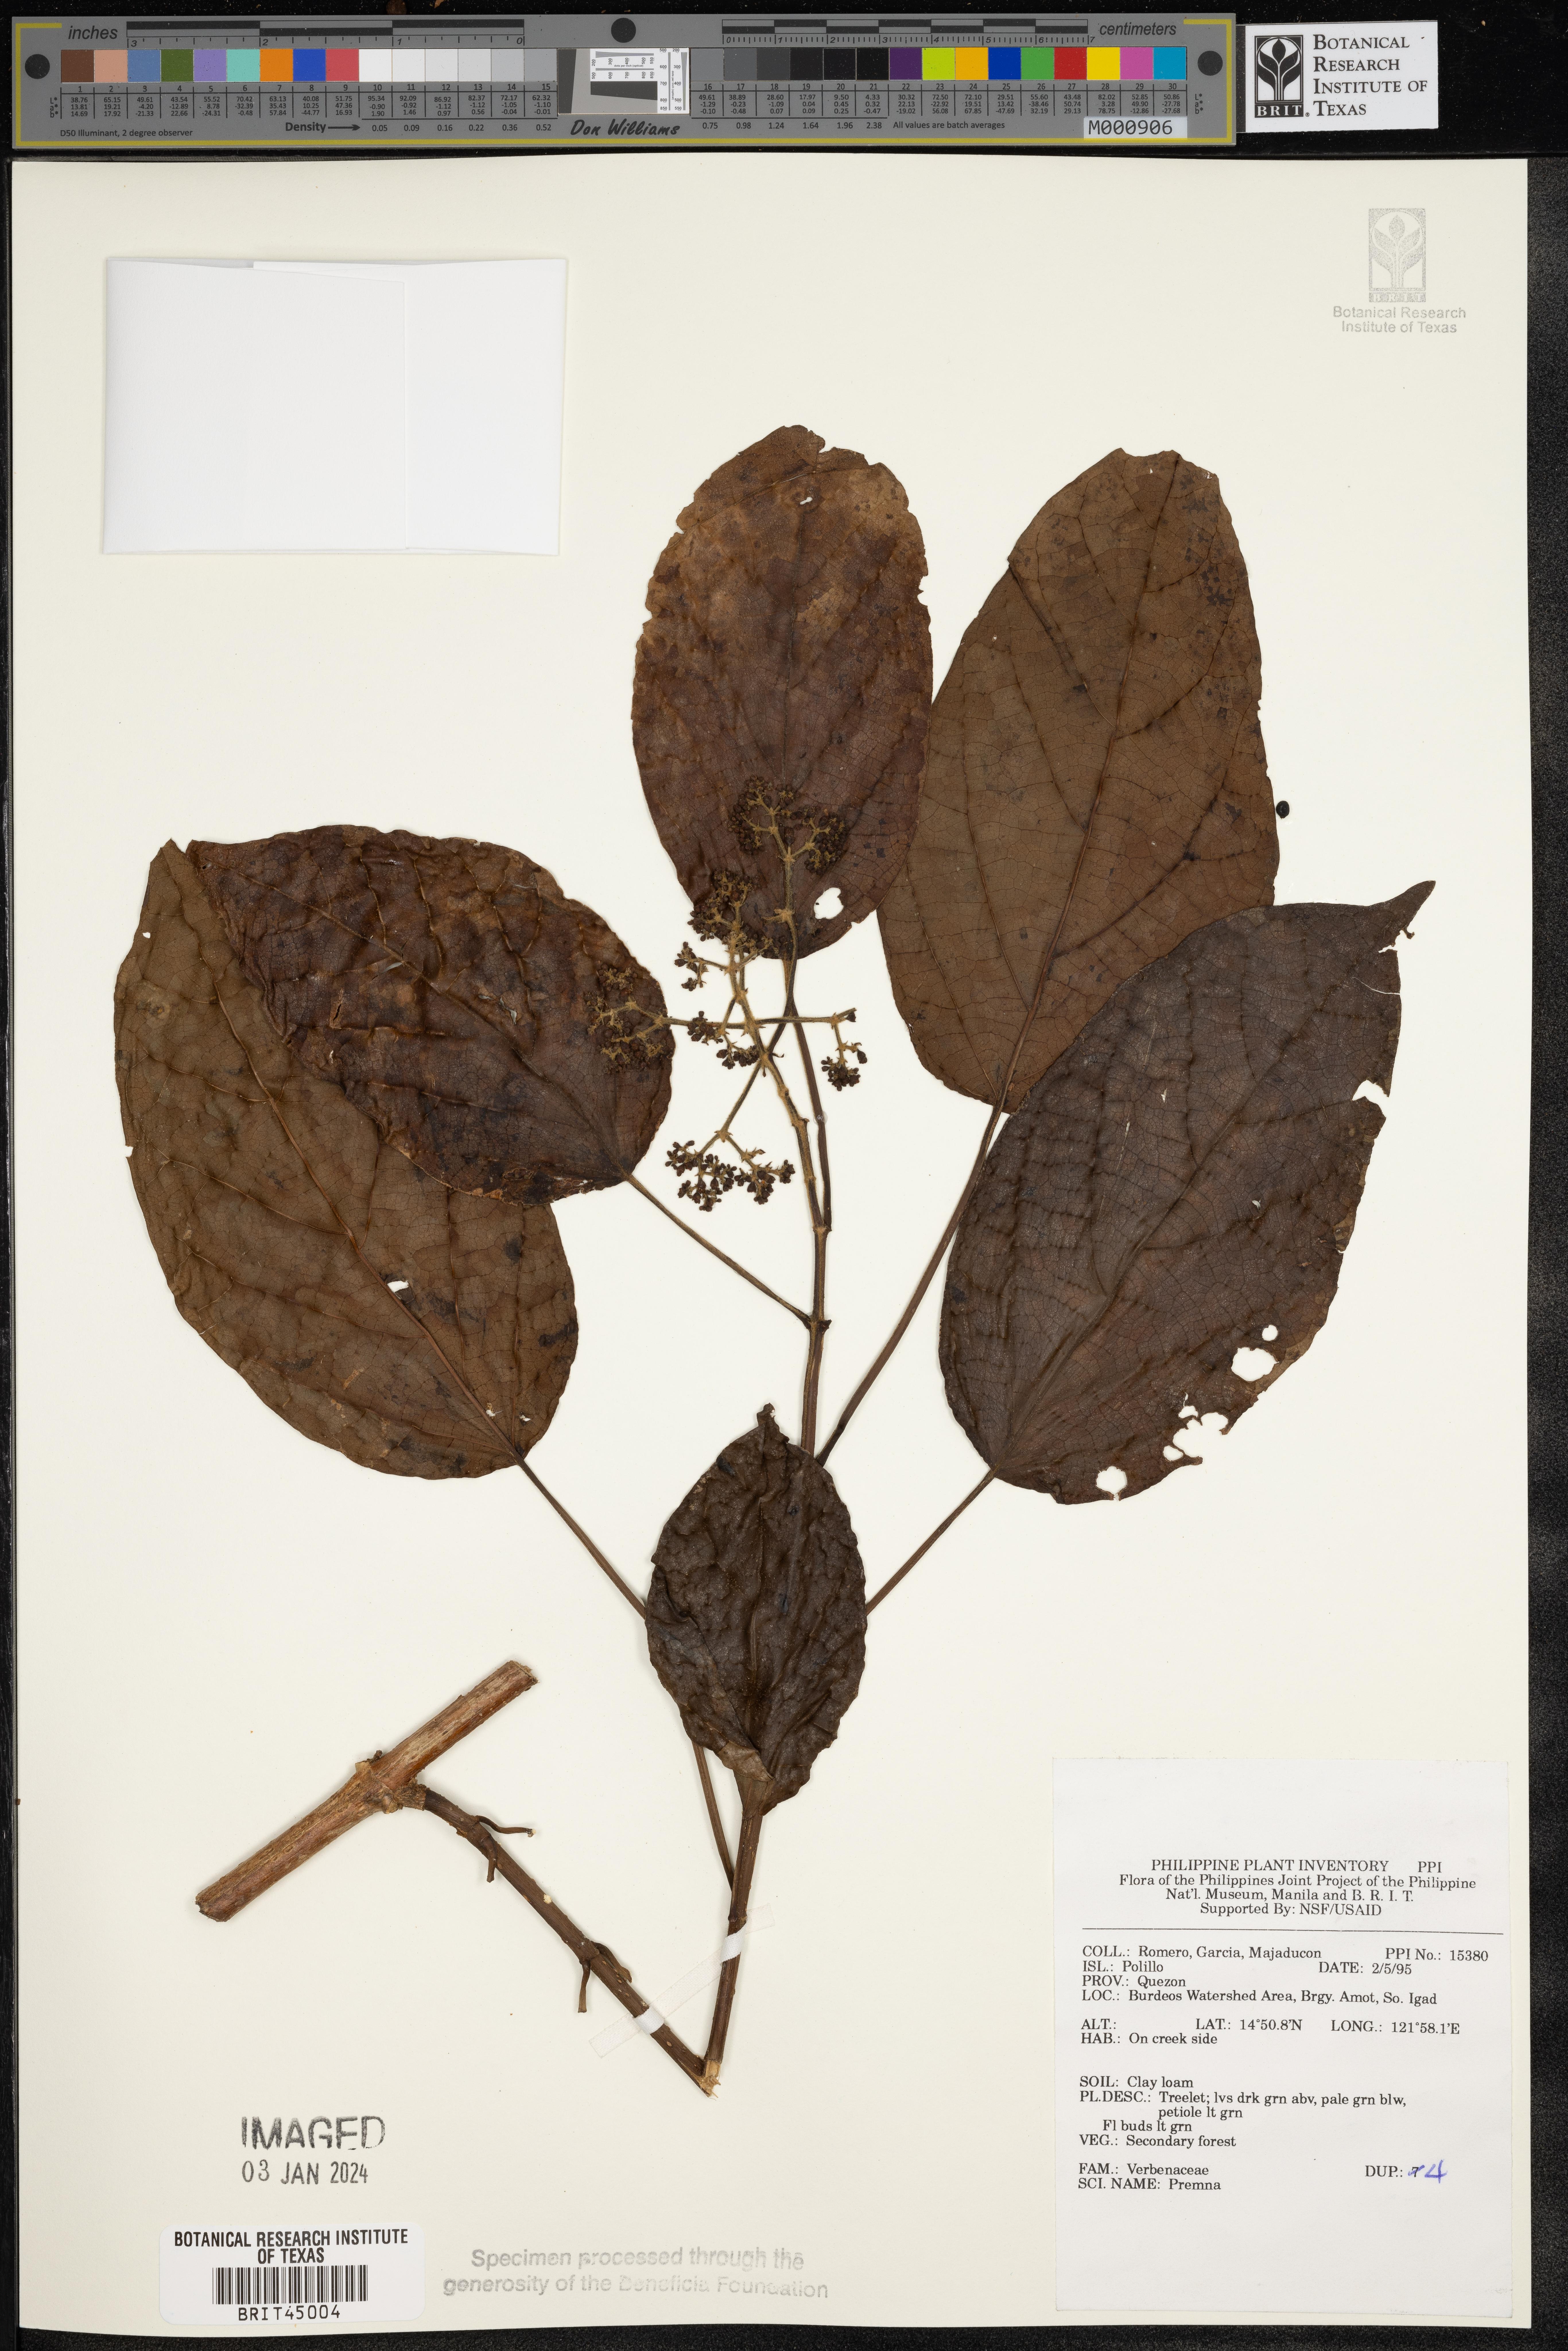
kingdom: Plantae
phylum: Tracheophyta
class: Magnoliopsida
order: Lamiales
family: Lamiaceae
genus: Premna
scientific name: Premna
